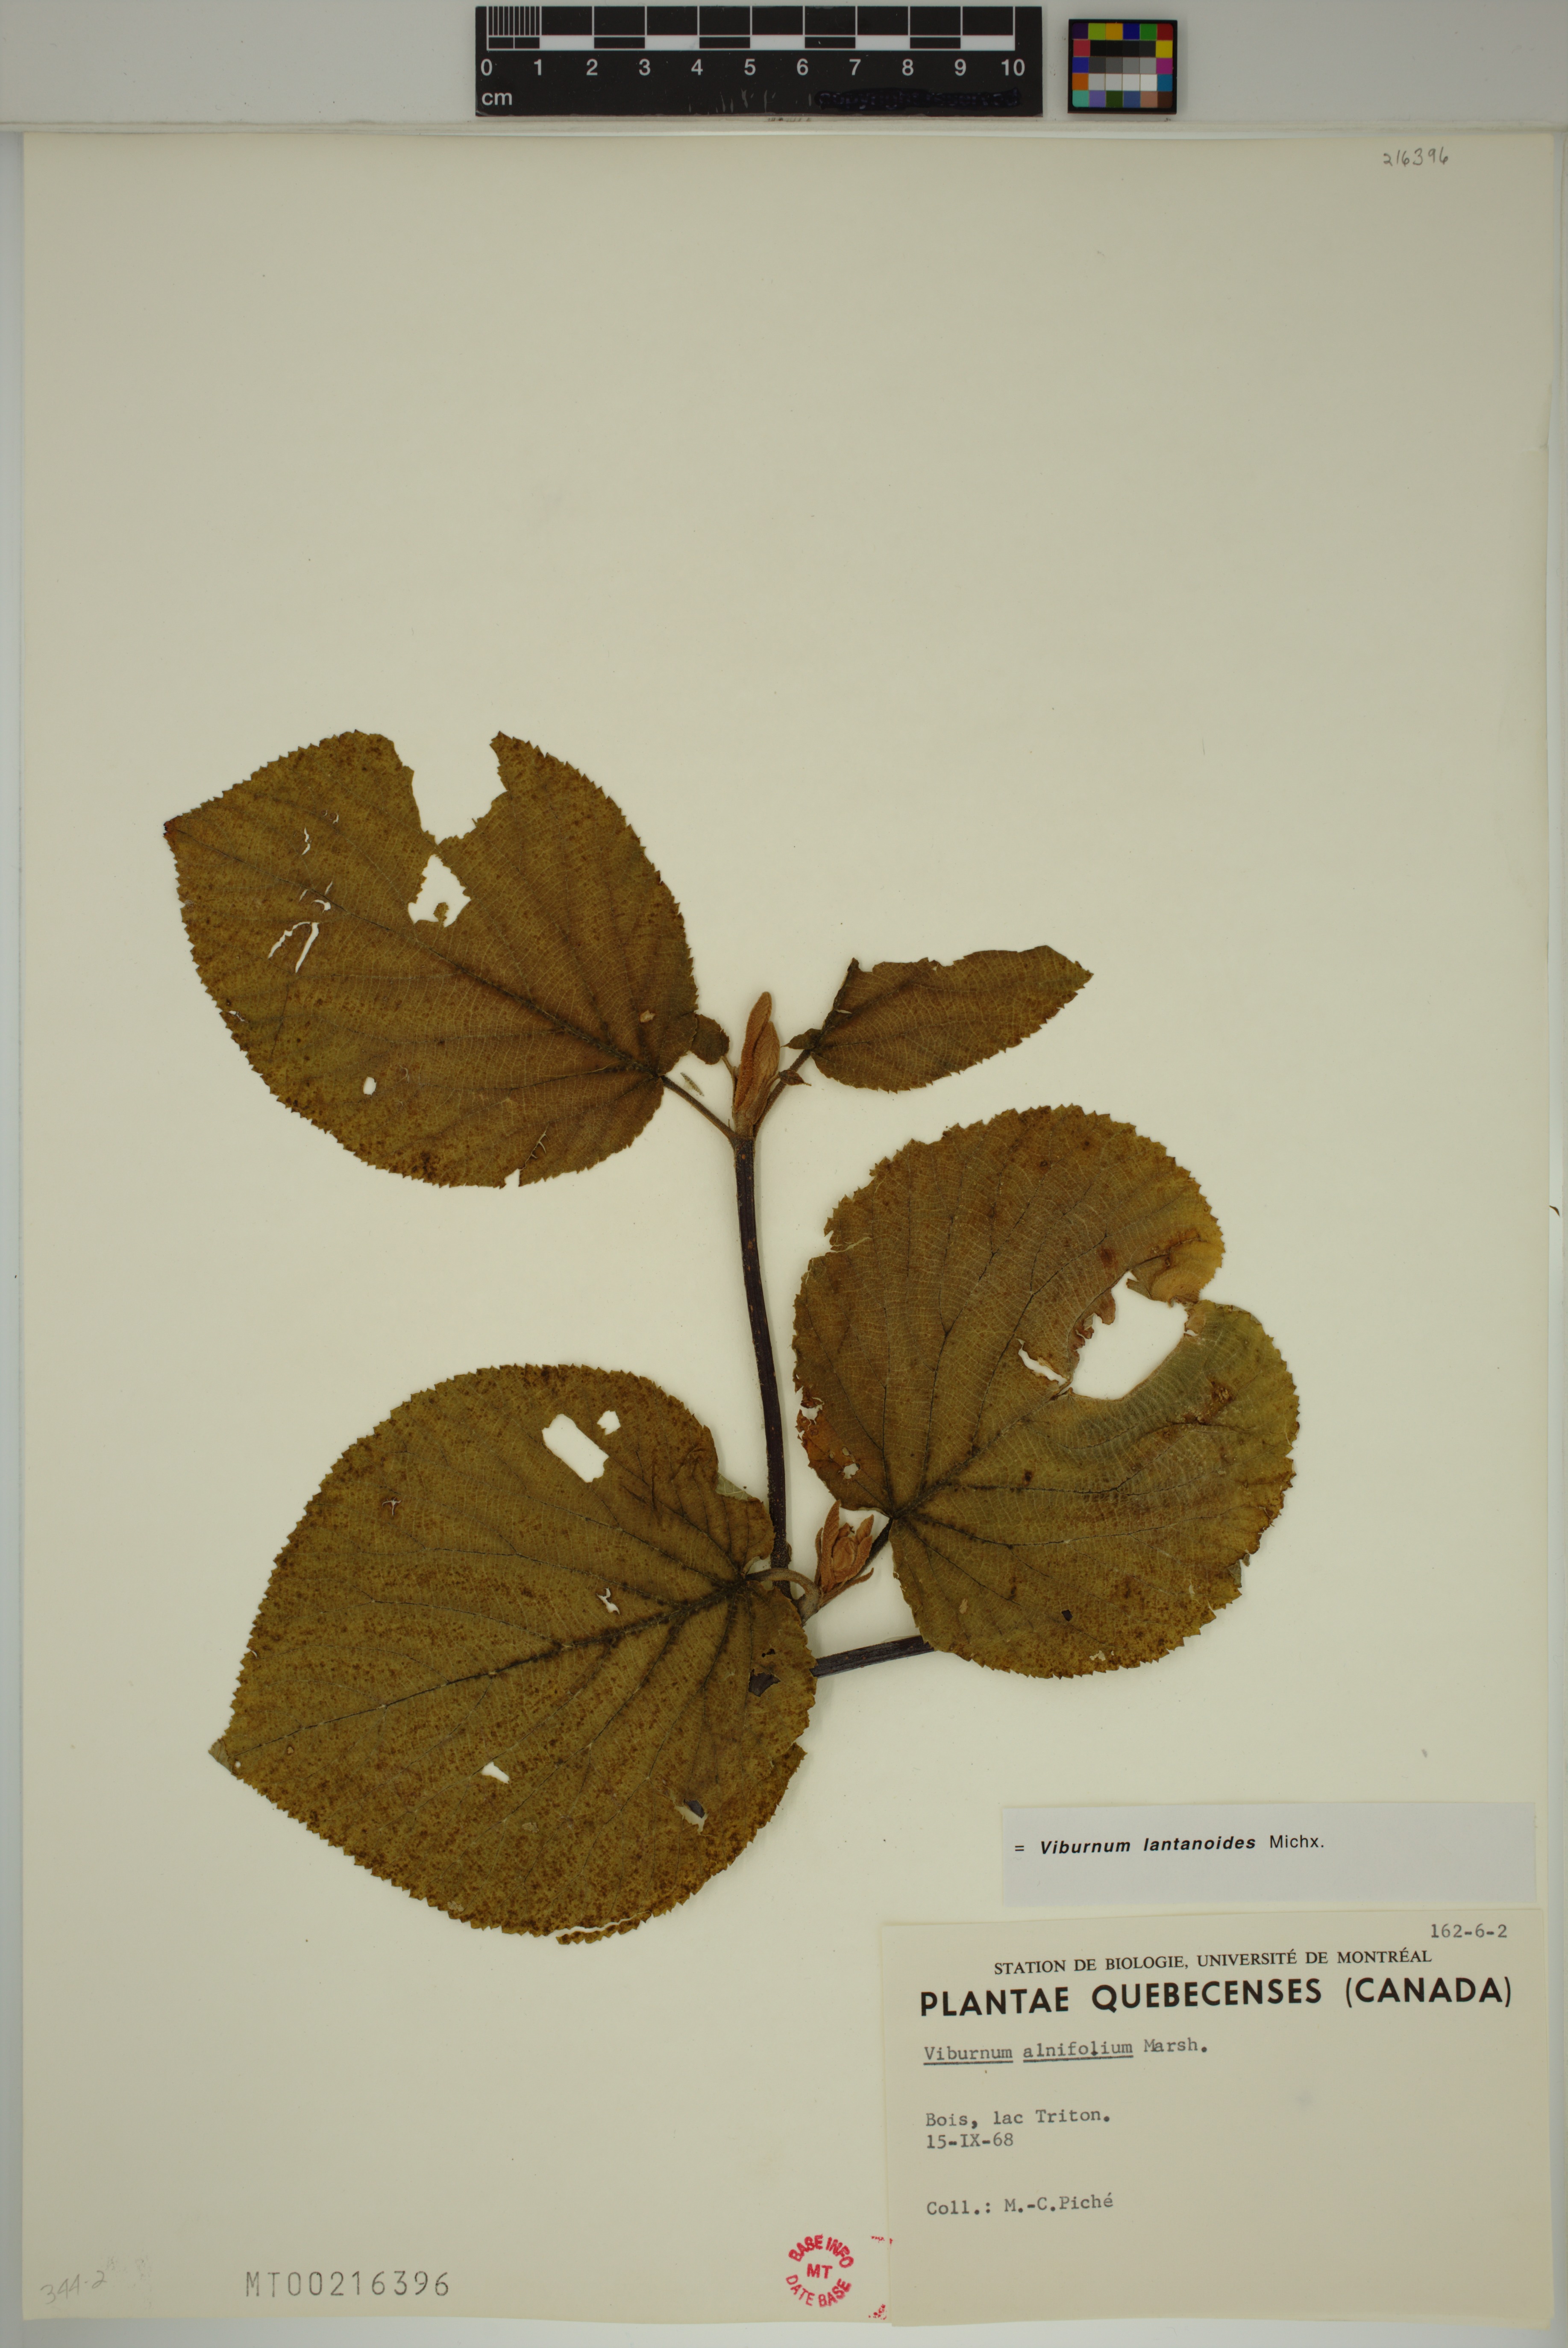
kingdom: Plantae
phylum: Tracheophyta
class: Magnoliopsida
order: Dipsacales
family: Viburnaceae
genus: Viburnum
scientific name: Viburnum lantanoides
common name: Hobblebush
